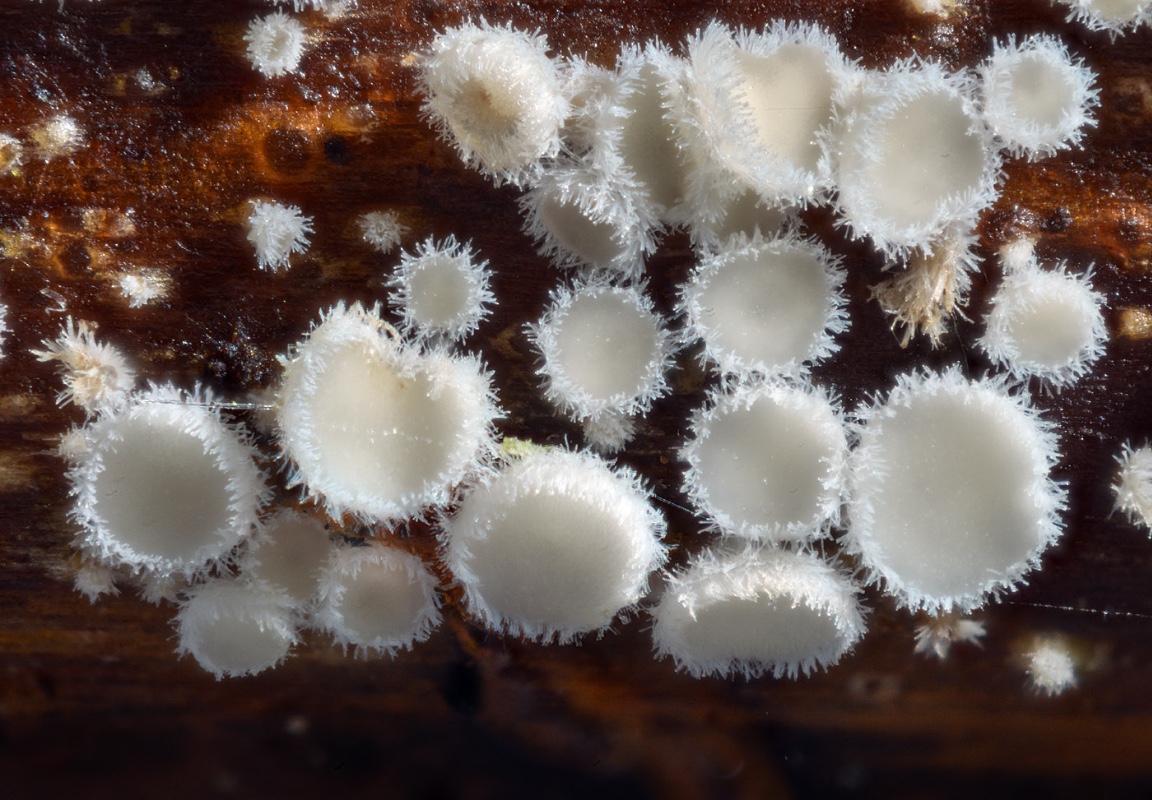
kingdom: Fungi
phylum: Ascomycota
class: Leotiomycetes
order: Helotiales
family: Lachnaceae
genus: Lachnum
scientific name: Lachnum clavigerum
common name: krystal-frynseskive
